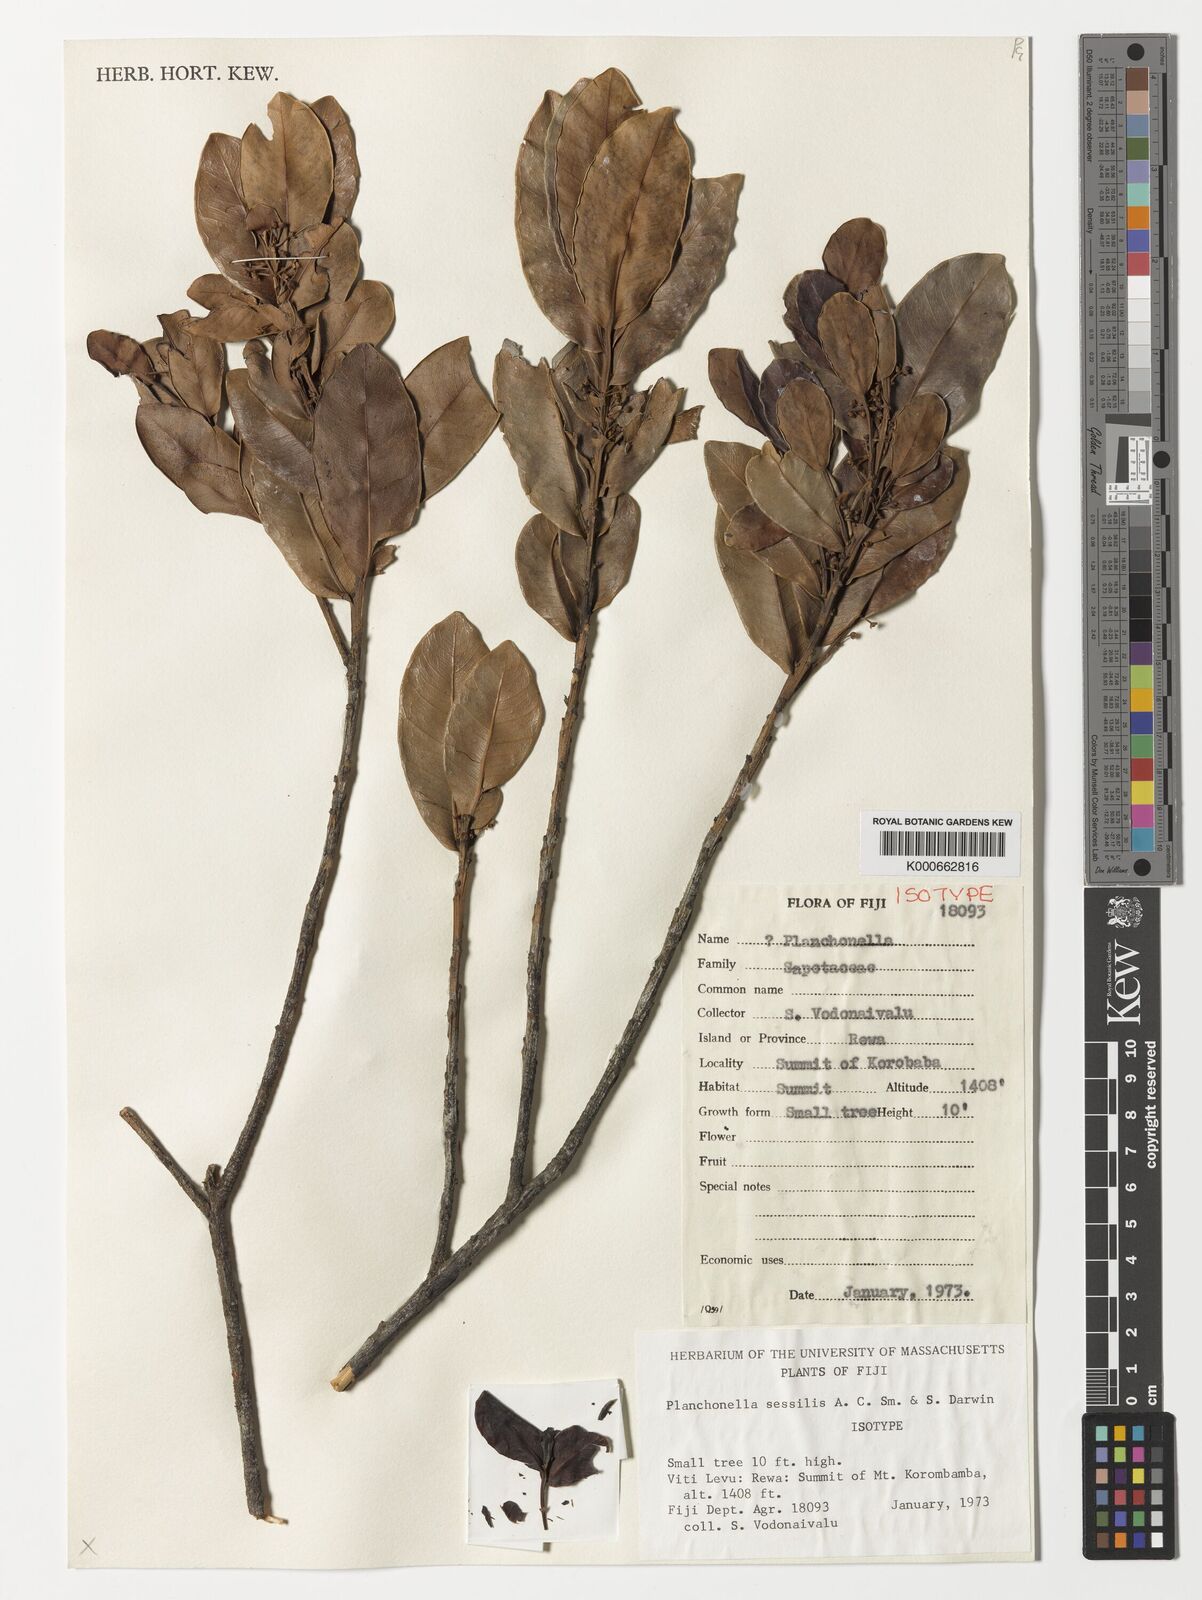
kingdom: Plantae
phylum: Tracheophyta
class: Magnoliopsida
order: Ericales
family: Sapotaceae
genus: Planchonella
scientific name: Planchonella sessilis
